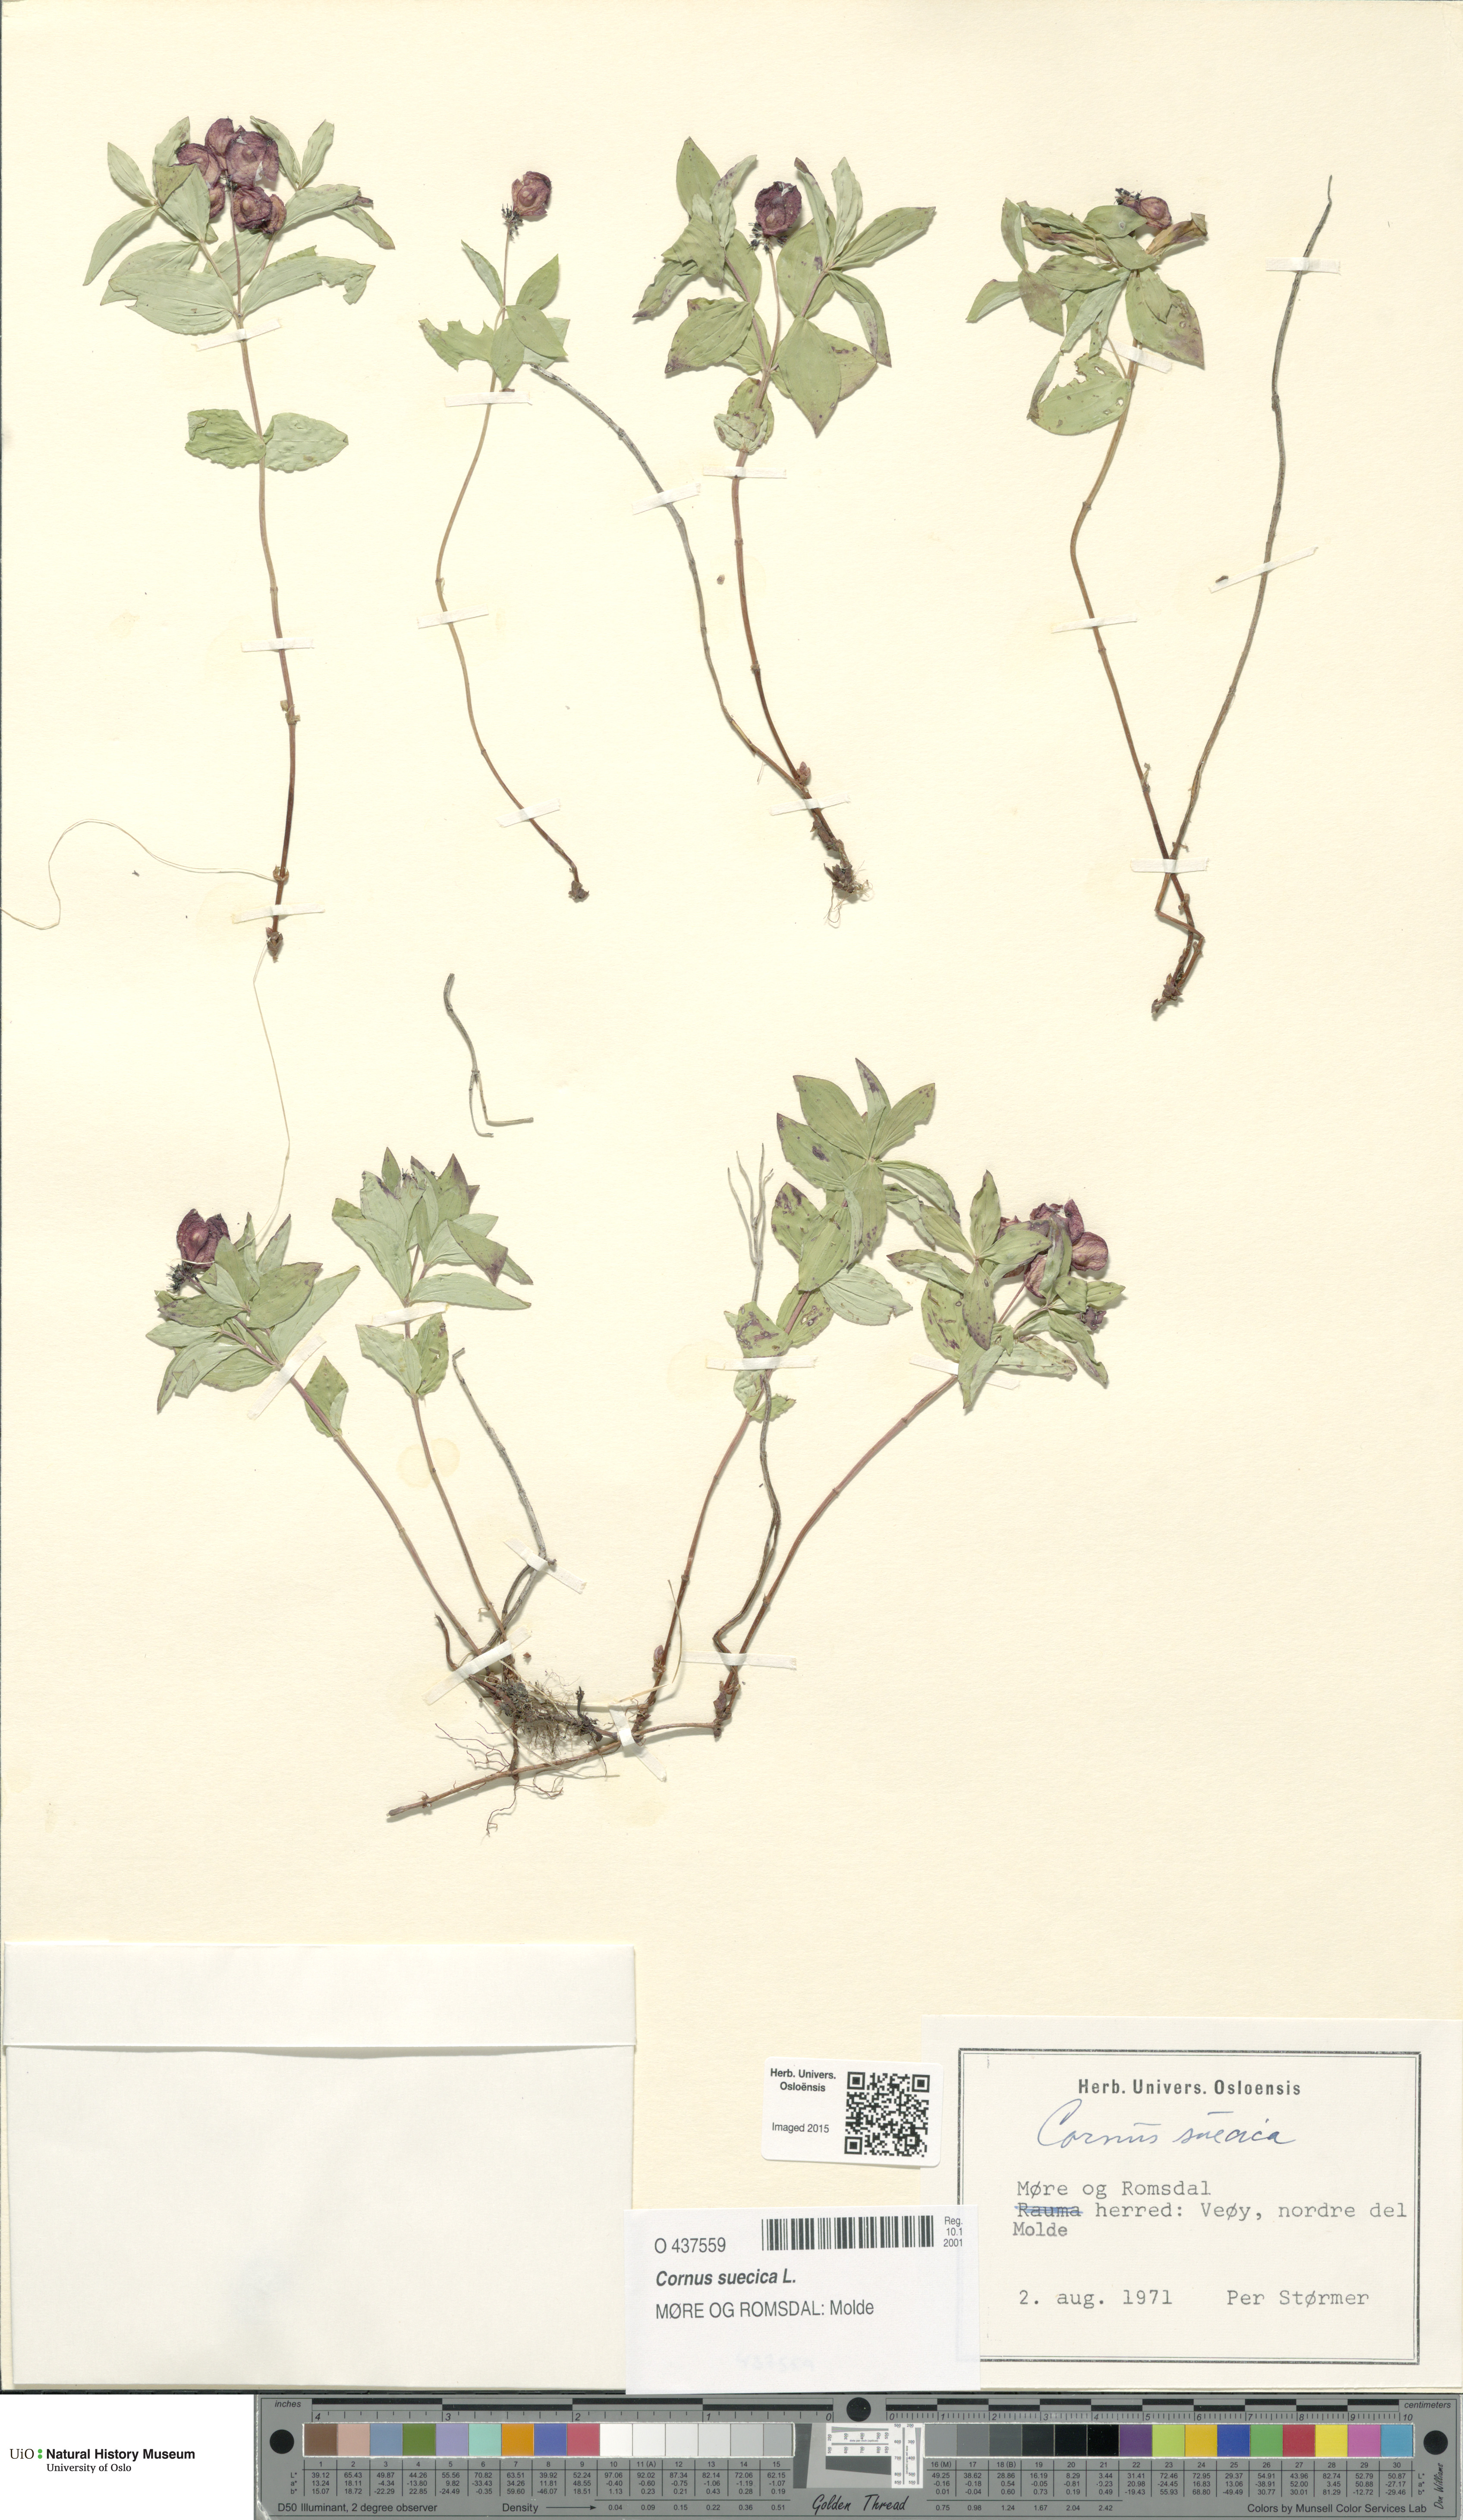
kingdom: Plantae
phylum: Tracheophyta
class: Magnoliopsida
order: Cornales
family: Cornaceae
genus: Cornus
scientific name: Cornus suecica
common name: Dwarf cornel
